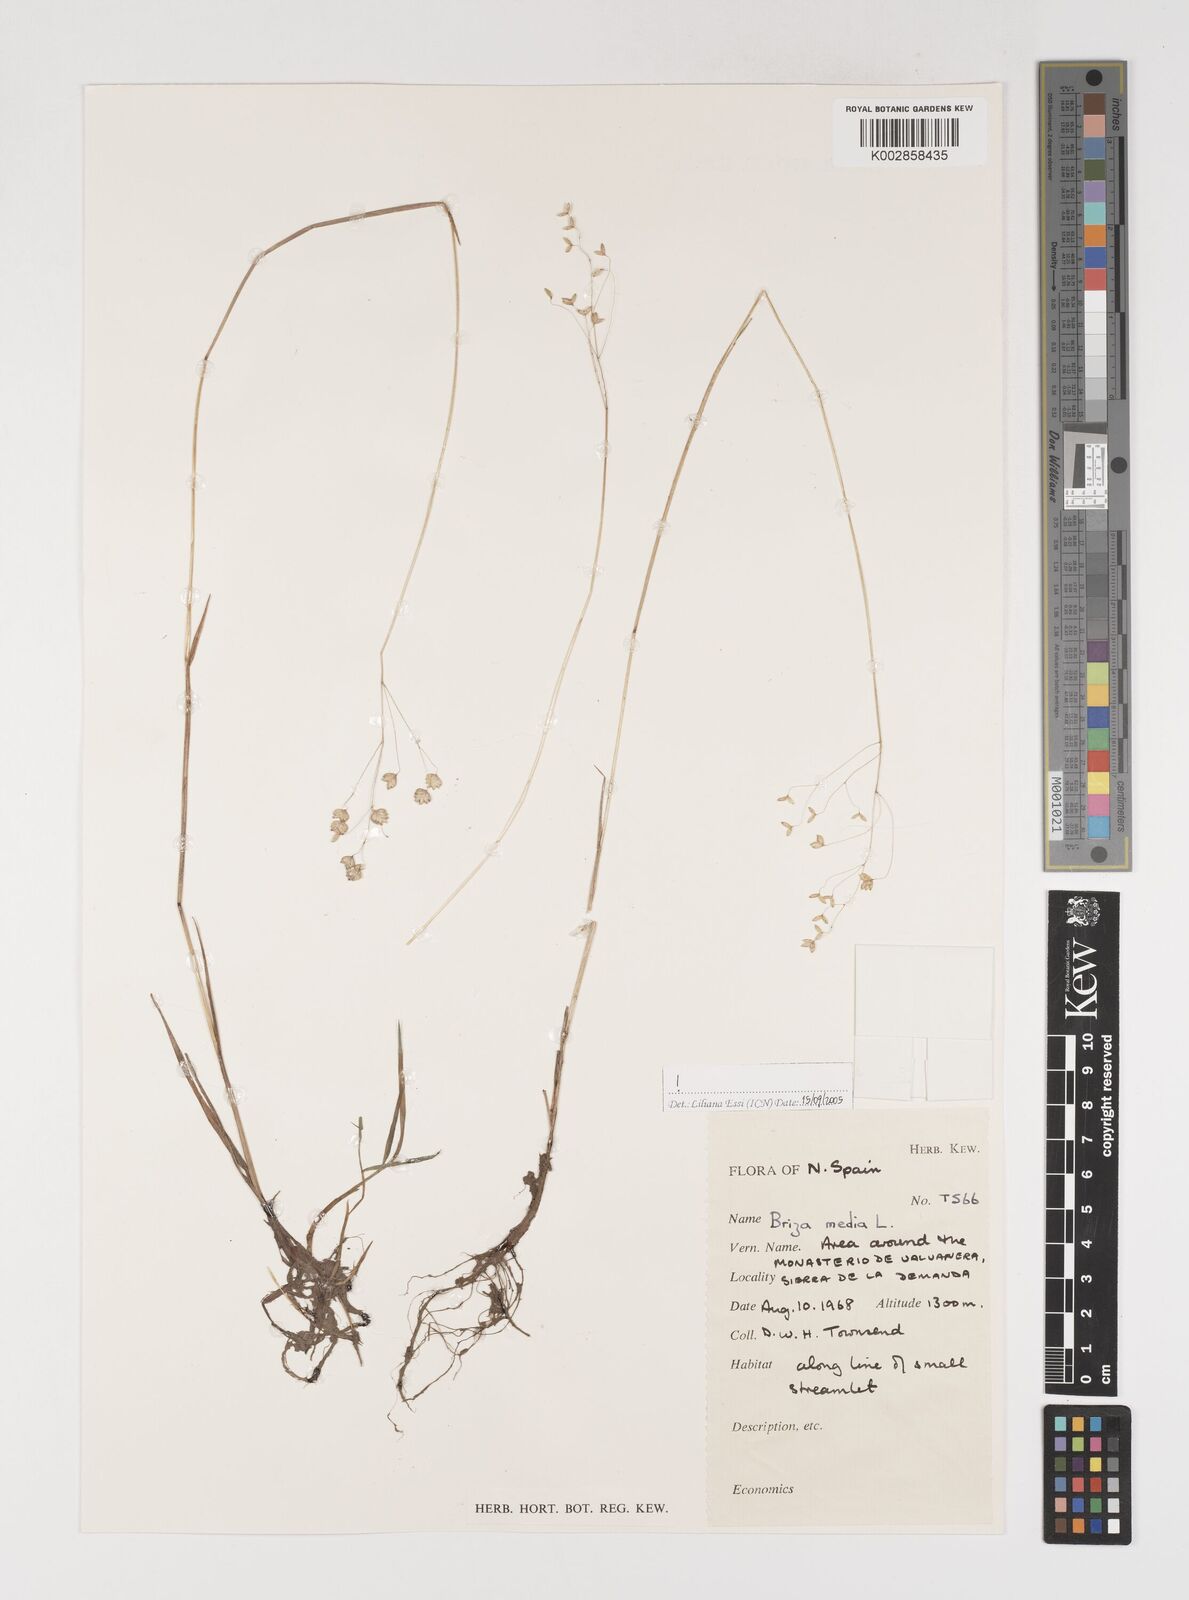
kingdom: Plantae
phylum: Tracheophyta
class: Liliopsida
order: Poales
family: Poaceae
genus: Briza
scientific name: Briza media
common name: Quaking grass
